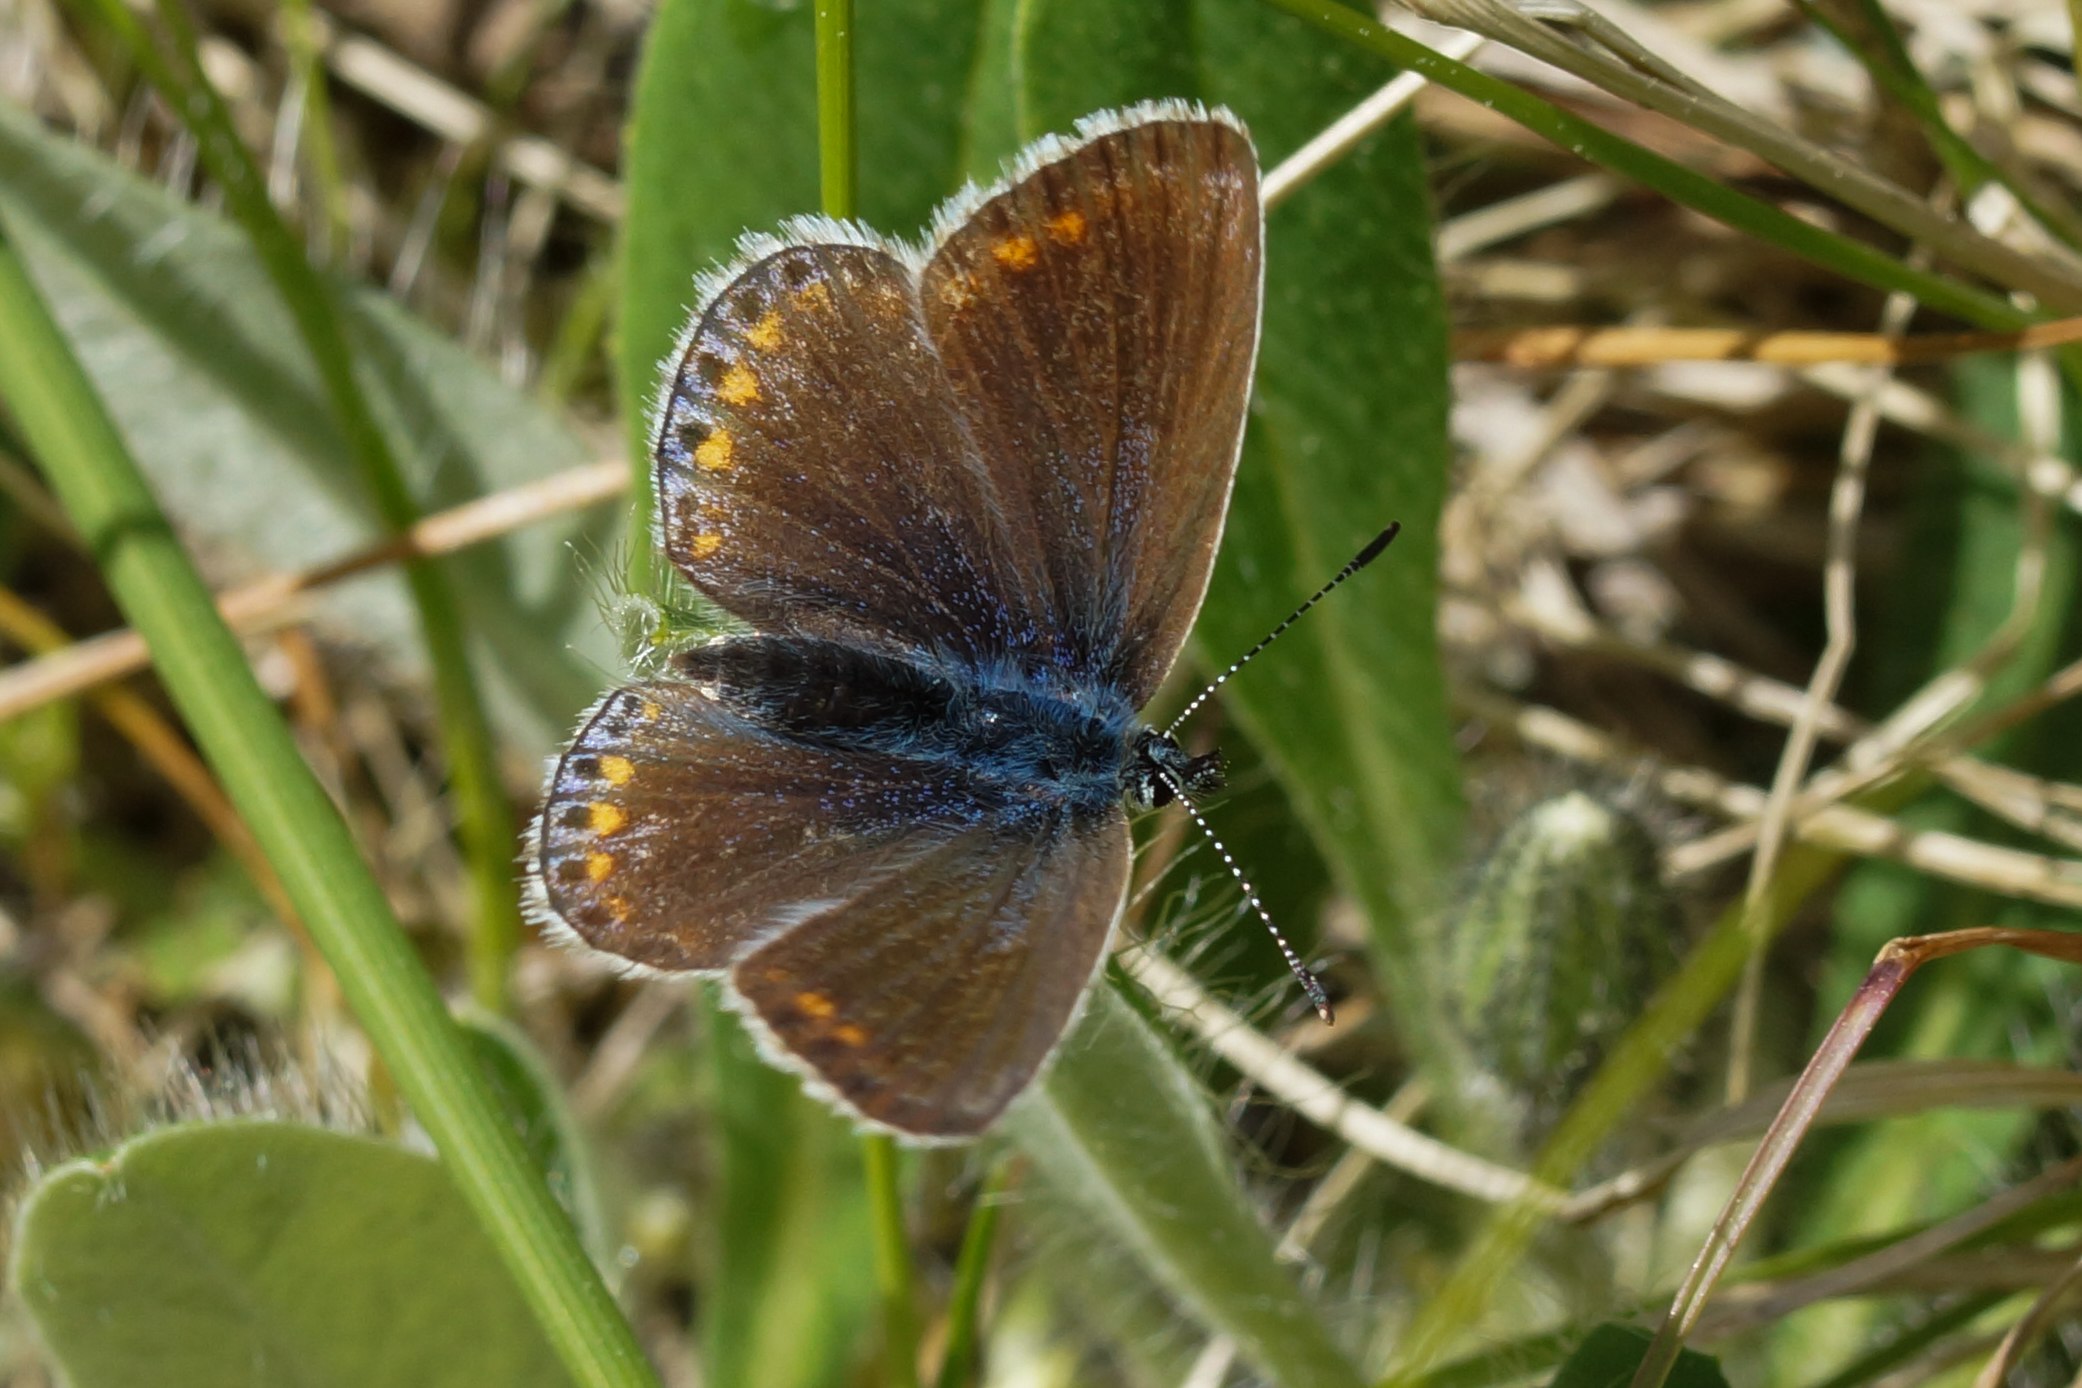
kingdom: Animalia
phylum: Arthropoda
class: Insecta
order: Lepidoptera
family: Lycaenidae
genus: Polyommatus
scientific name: Polyommatus icarus
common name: Almindelig blåfugl
